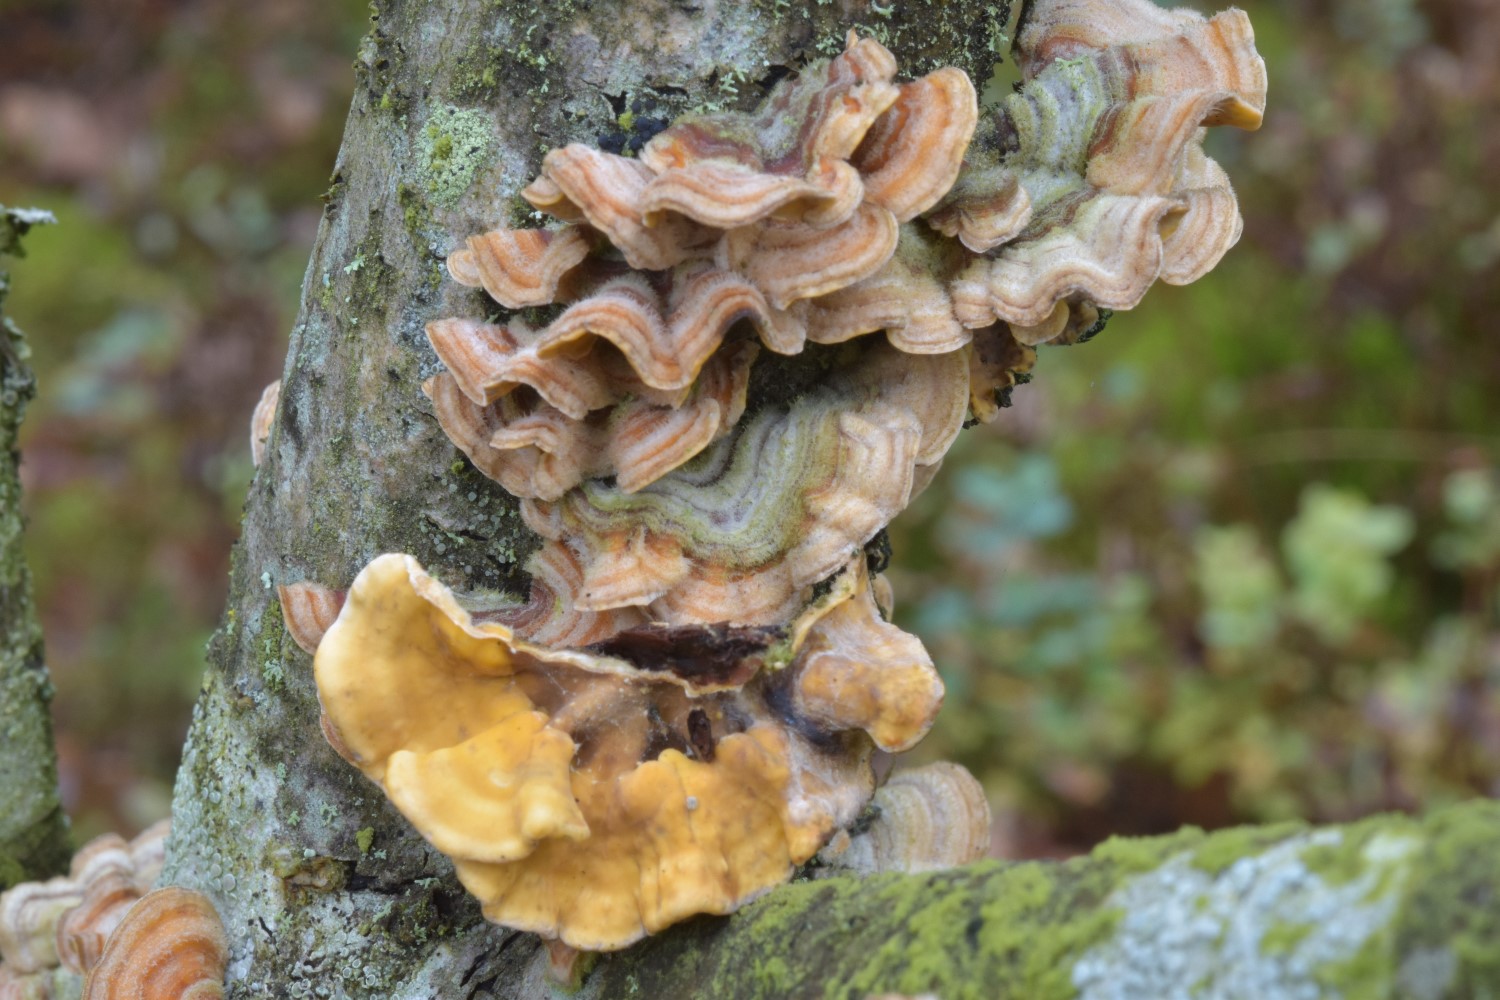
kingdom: Fungi
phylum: Basidiomycota
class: Agaricomycetes
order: Russulales
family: Stereaceae
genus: Stereum
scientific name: Stereum hirsutum
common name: håret lædersvamp
